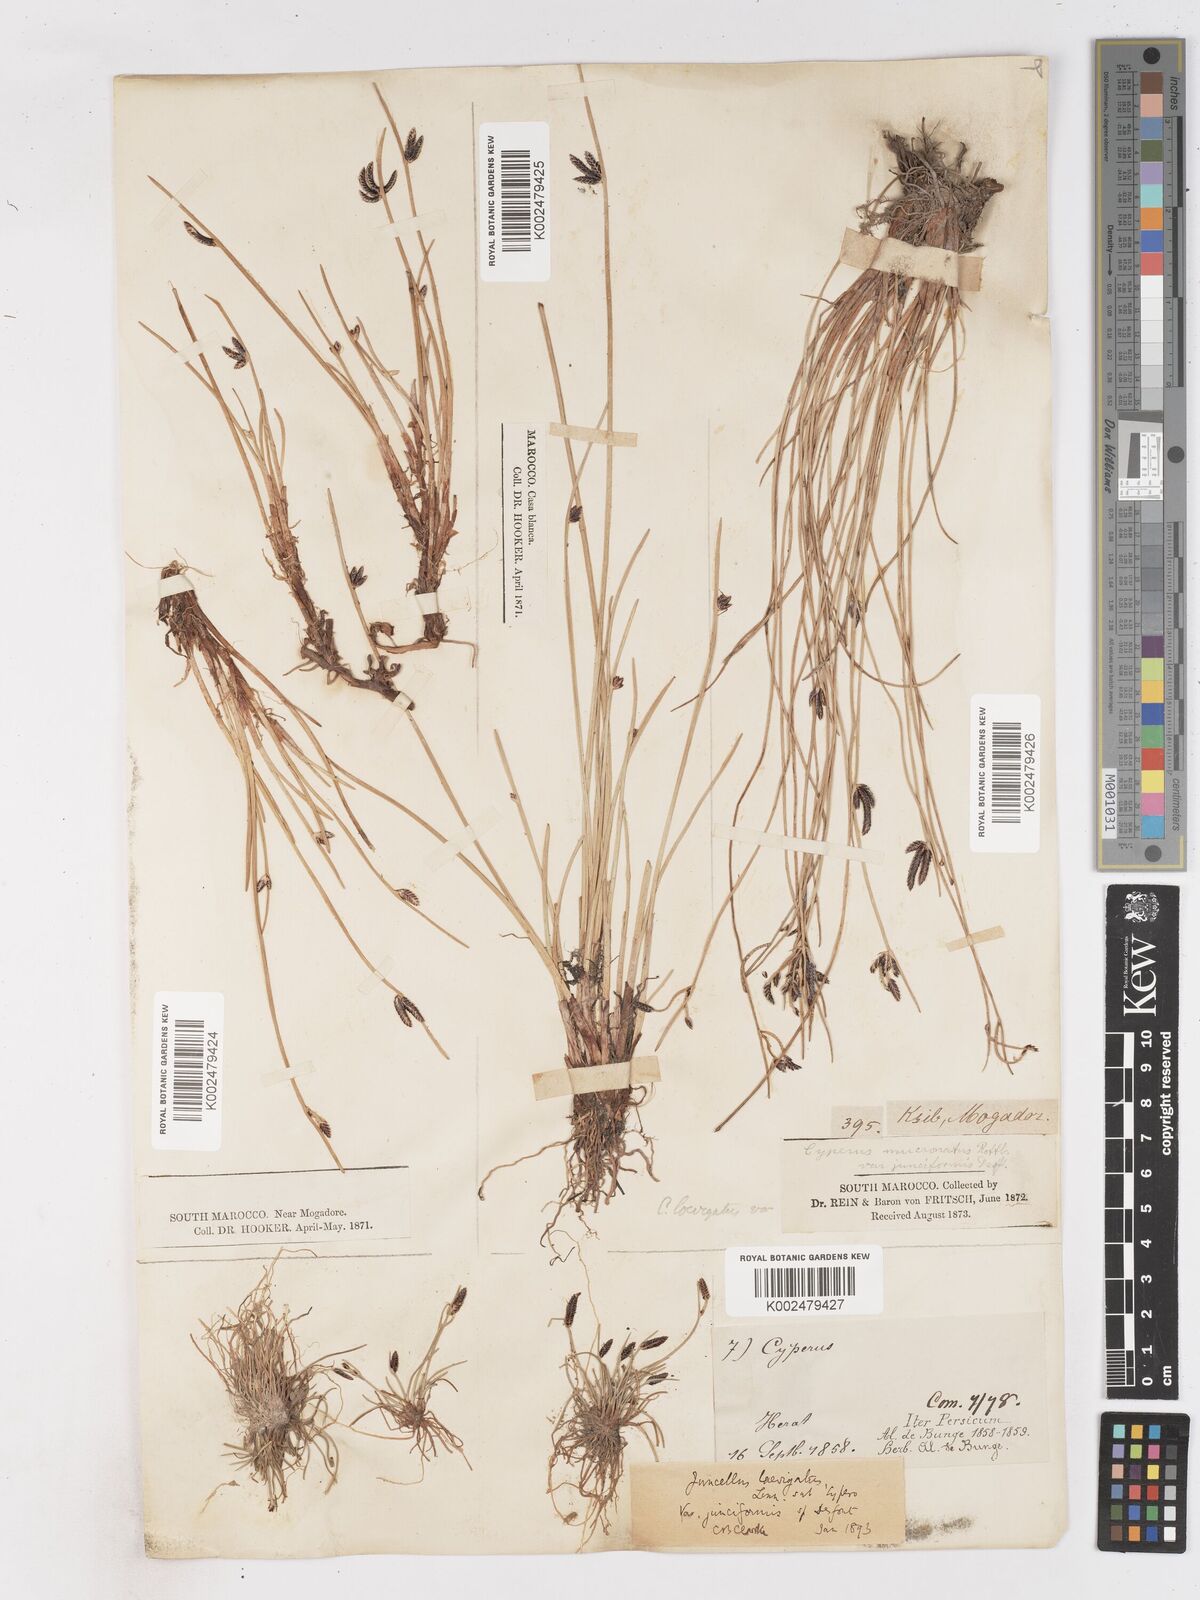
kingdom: Plantae
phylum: Tracheophyta
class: Liliopsida
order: Poales
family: Cyperaceae
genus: Cyperus
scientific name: Cyperus laevigatus
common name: Smooth flat sedge
